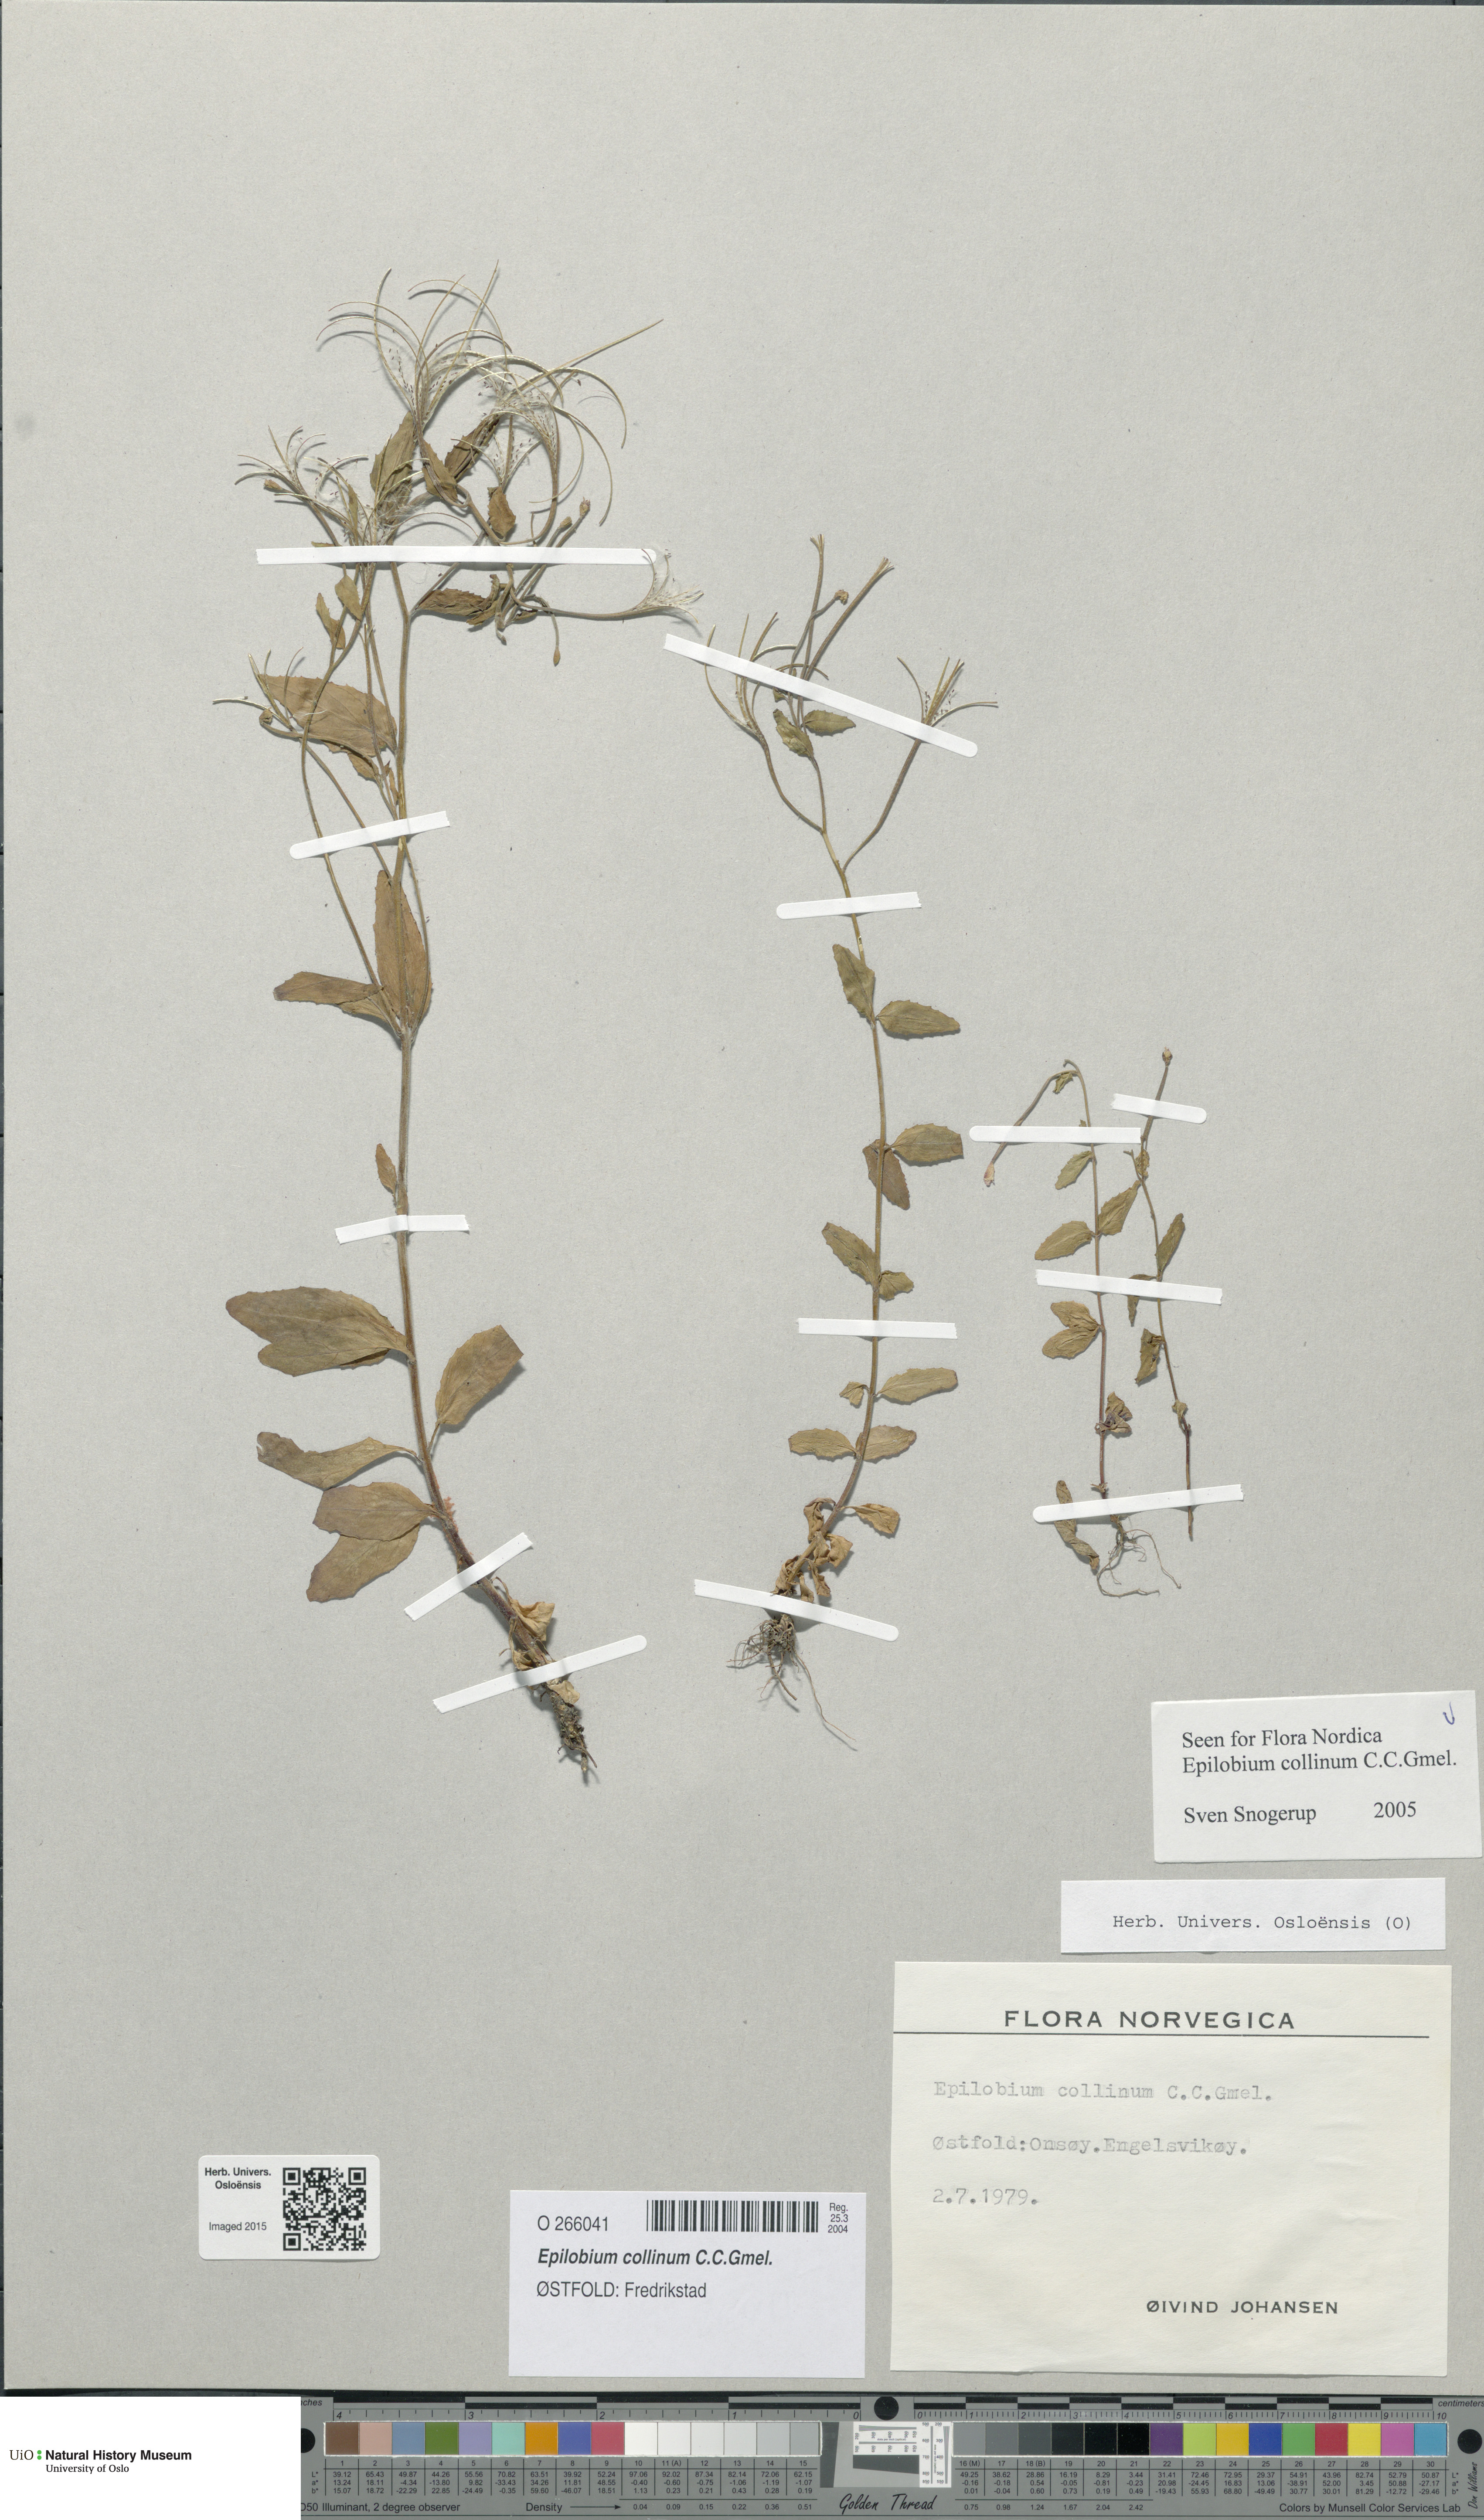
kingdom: Plantae
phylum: Tracheophyta
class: Magnoliopsida
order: Myrtales
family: Onagraceae
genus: Epilobium
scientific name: Epilobium collinum
